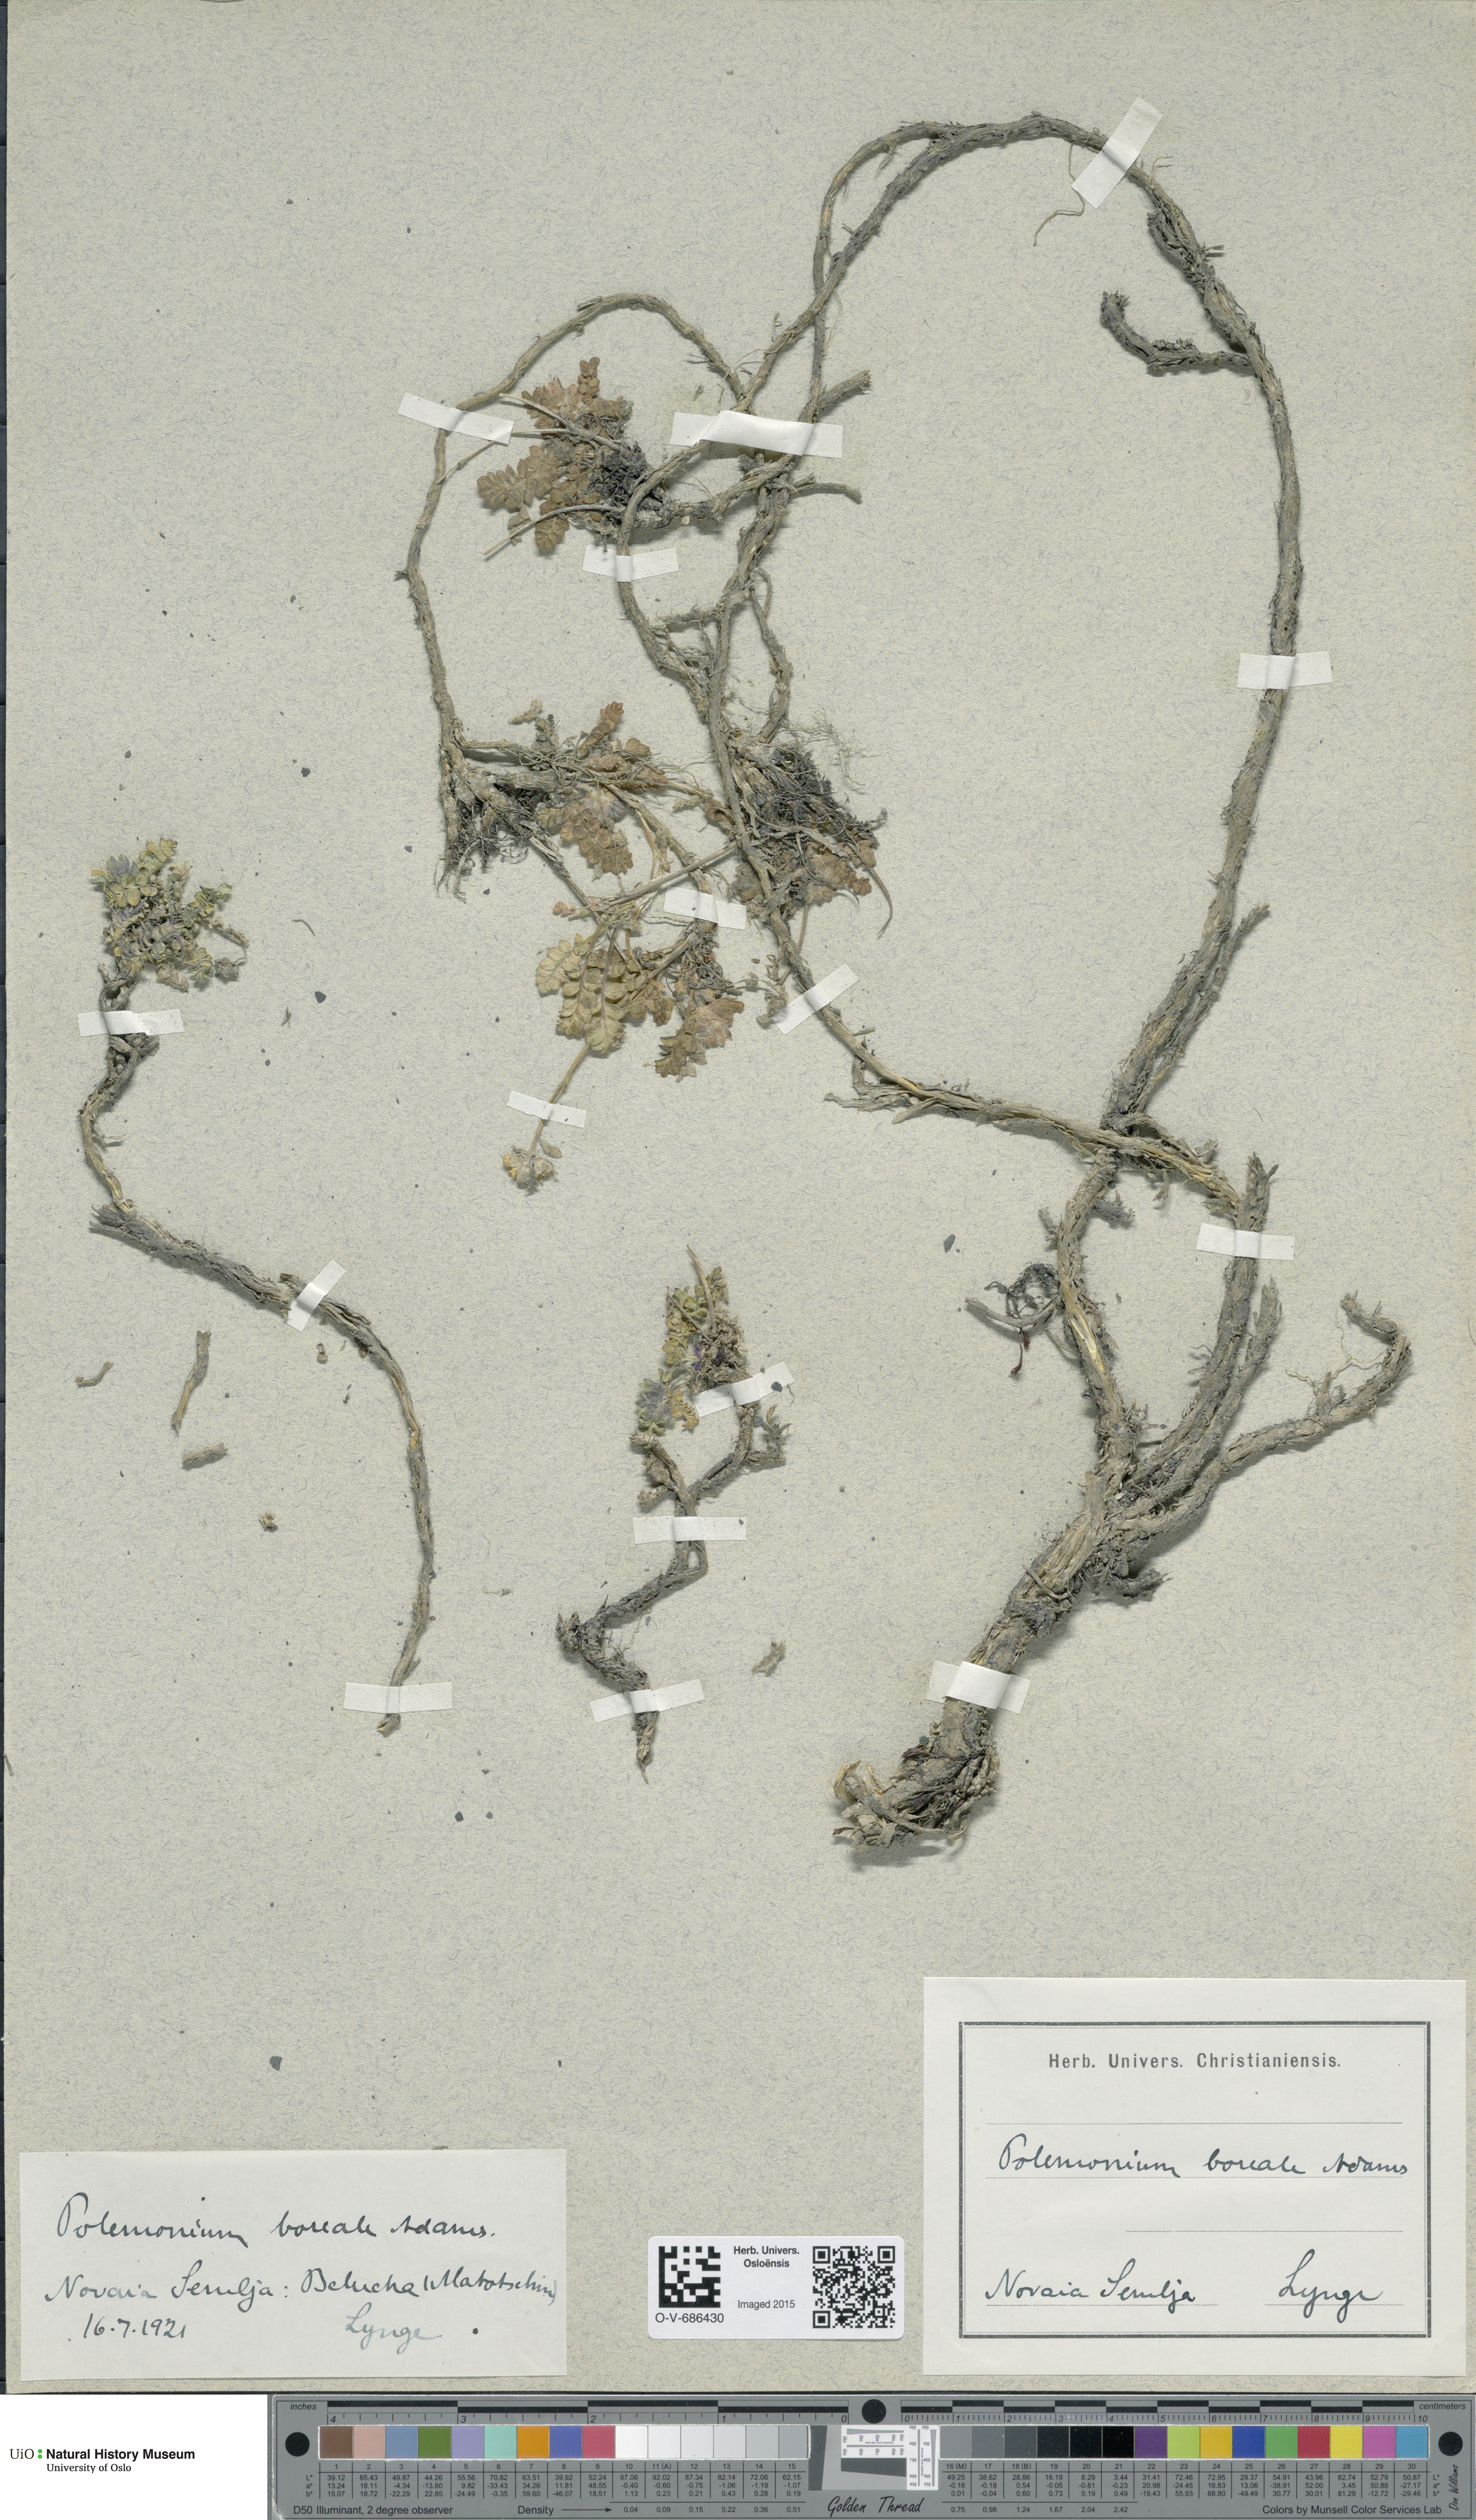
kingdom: Plantae
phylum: Tracheophyta
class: Magnoliopsida
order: Ericales
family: Polemoniaceae
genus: Polemonium
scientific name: Polemonium boreale
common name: Boreal jacob's-ladder
